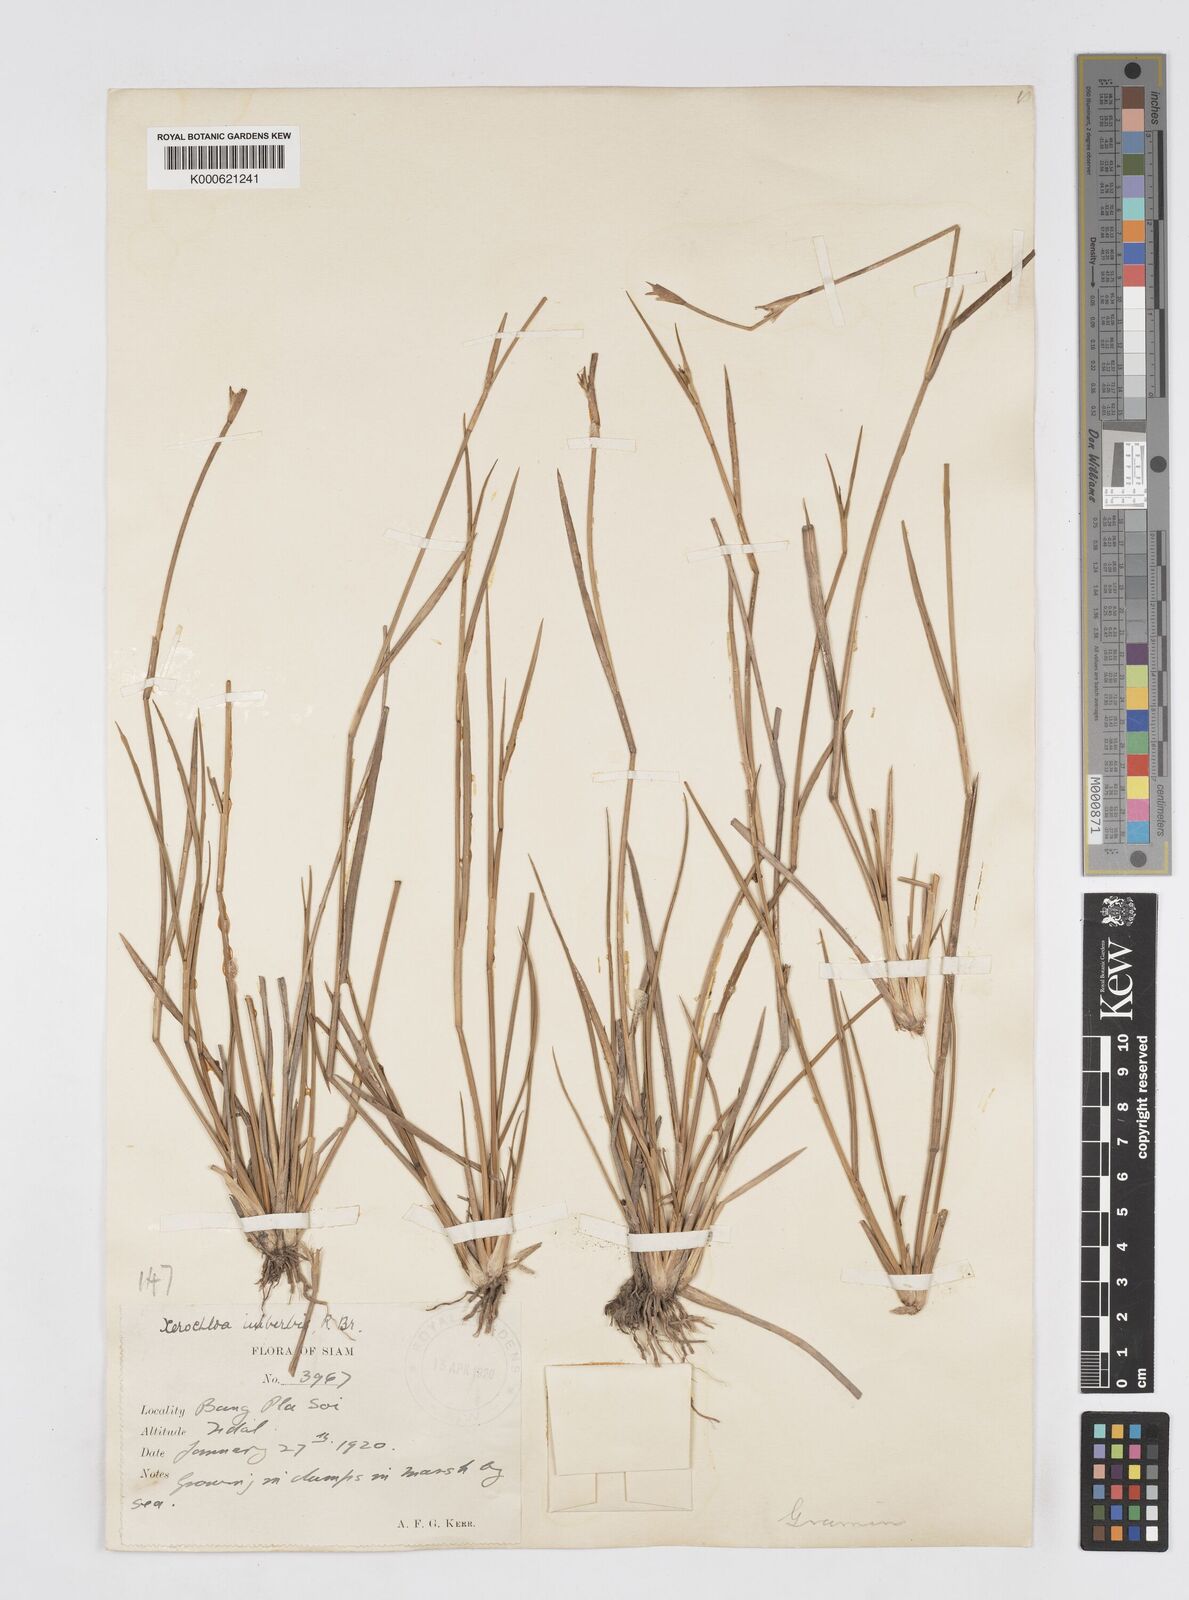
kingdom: Plantae
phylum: Tracheophyta
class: Liliopsida
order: Poales
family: Poaceae
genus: Xerochloa
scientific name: Xerochloa imberbis
